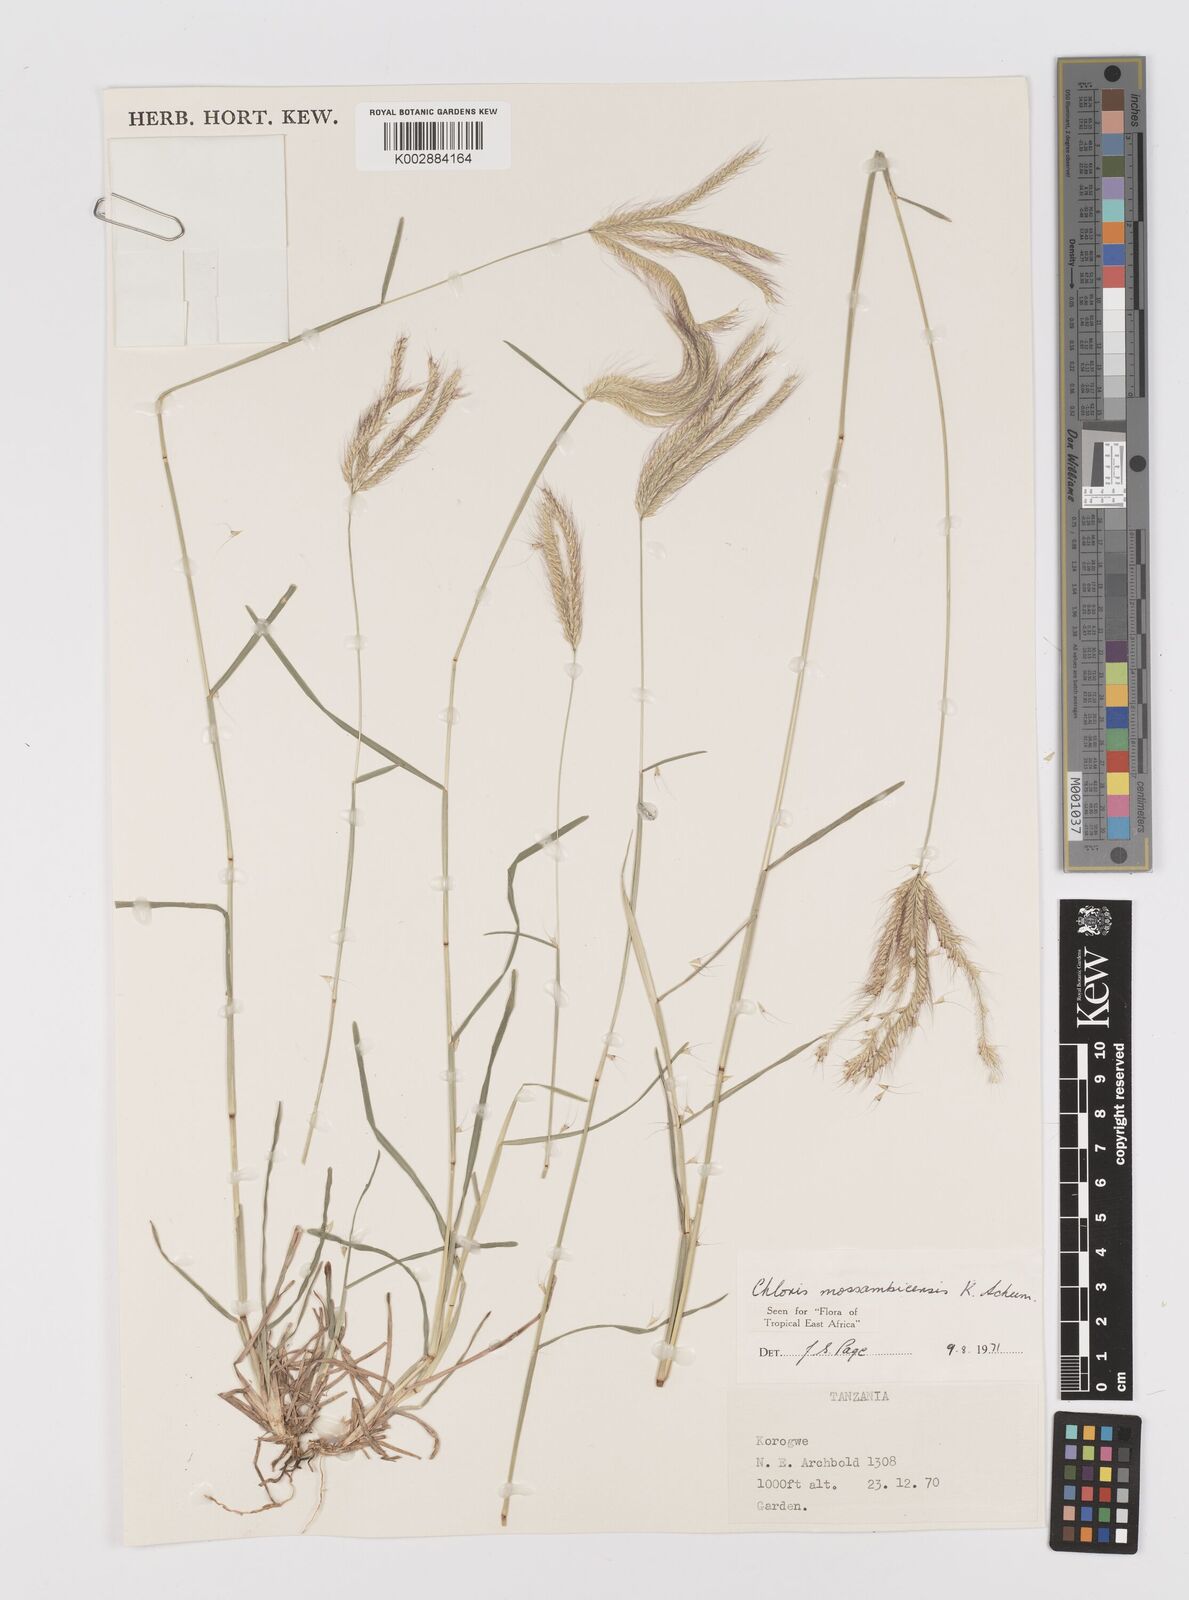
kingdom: Plantae
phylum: Tracheophyta
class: Liliopsida
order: Poales
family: Poaceae
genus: Chloris
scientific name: Chloris mossambicensis
